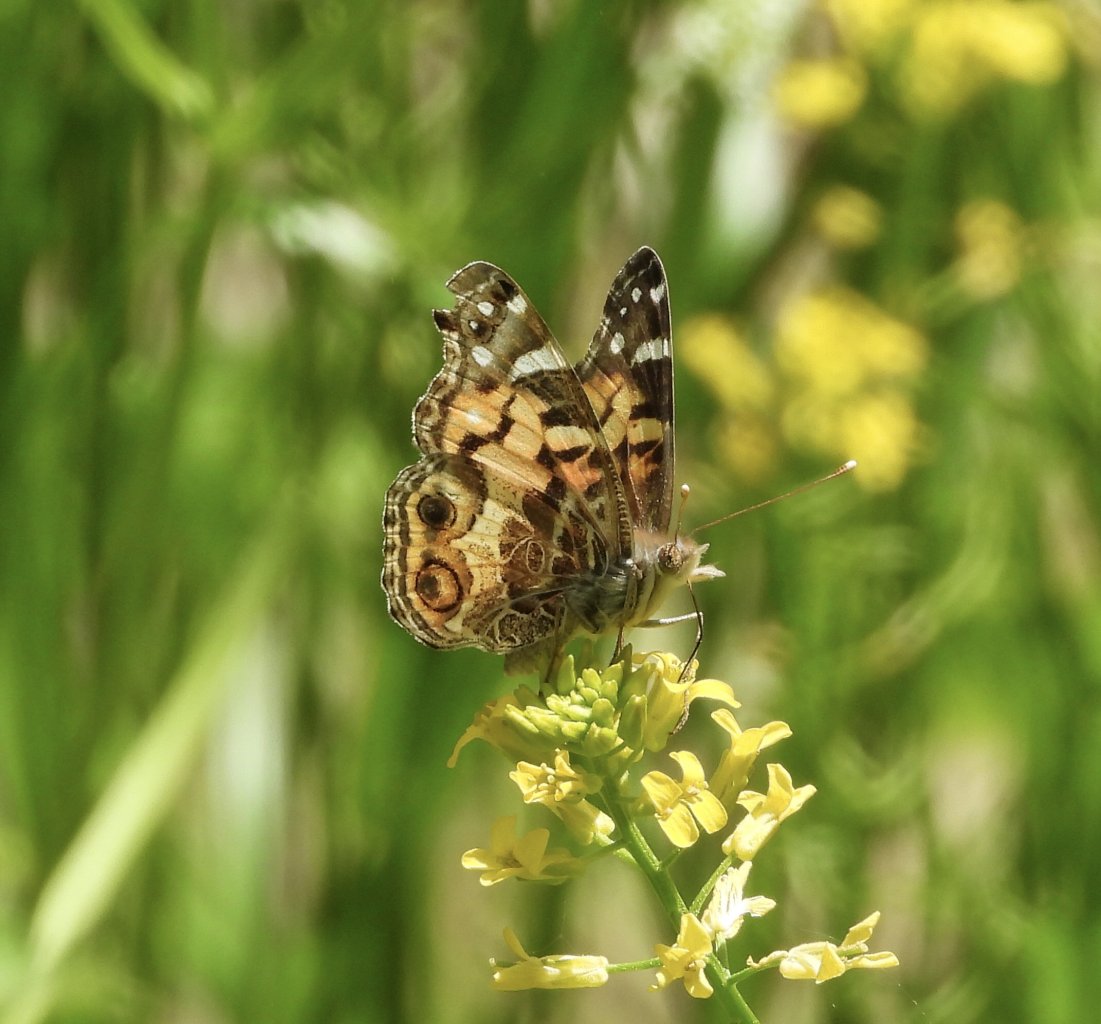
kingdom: Animalia
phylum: Arthropoda
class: Insecta
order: Lepidoptera
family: Nymphalidae
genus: Vanessa
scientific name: Vanessa virginiensis
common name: American Lady
